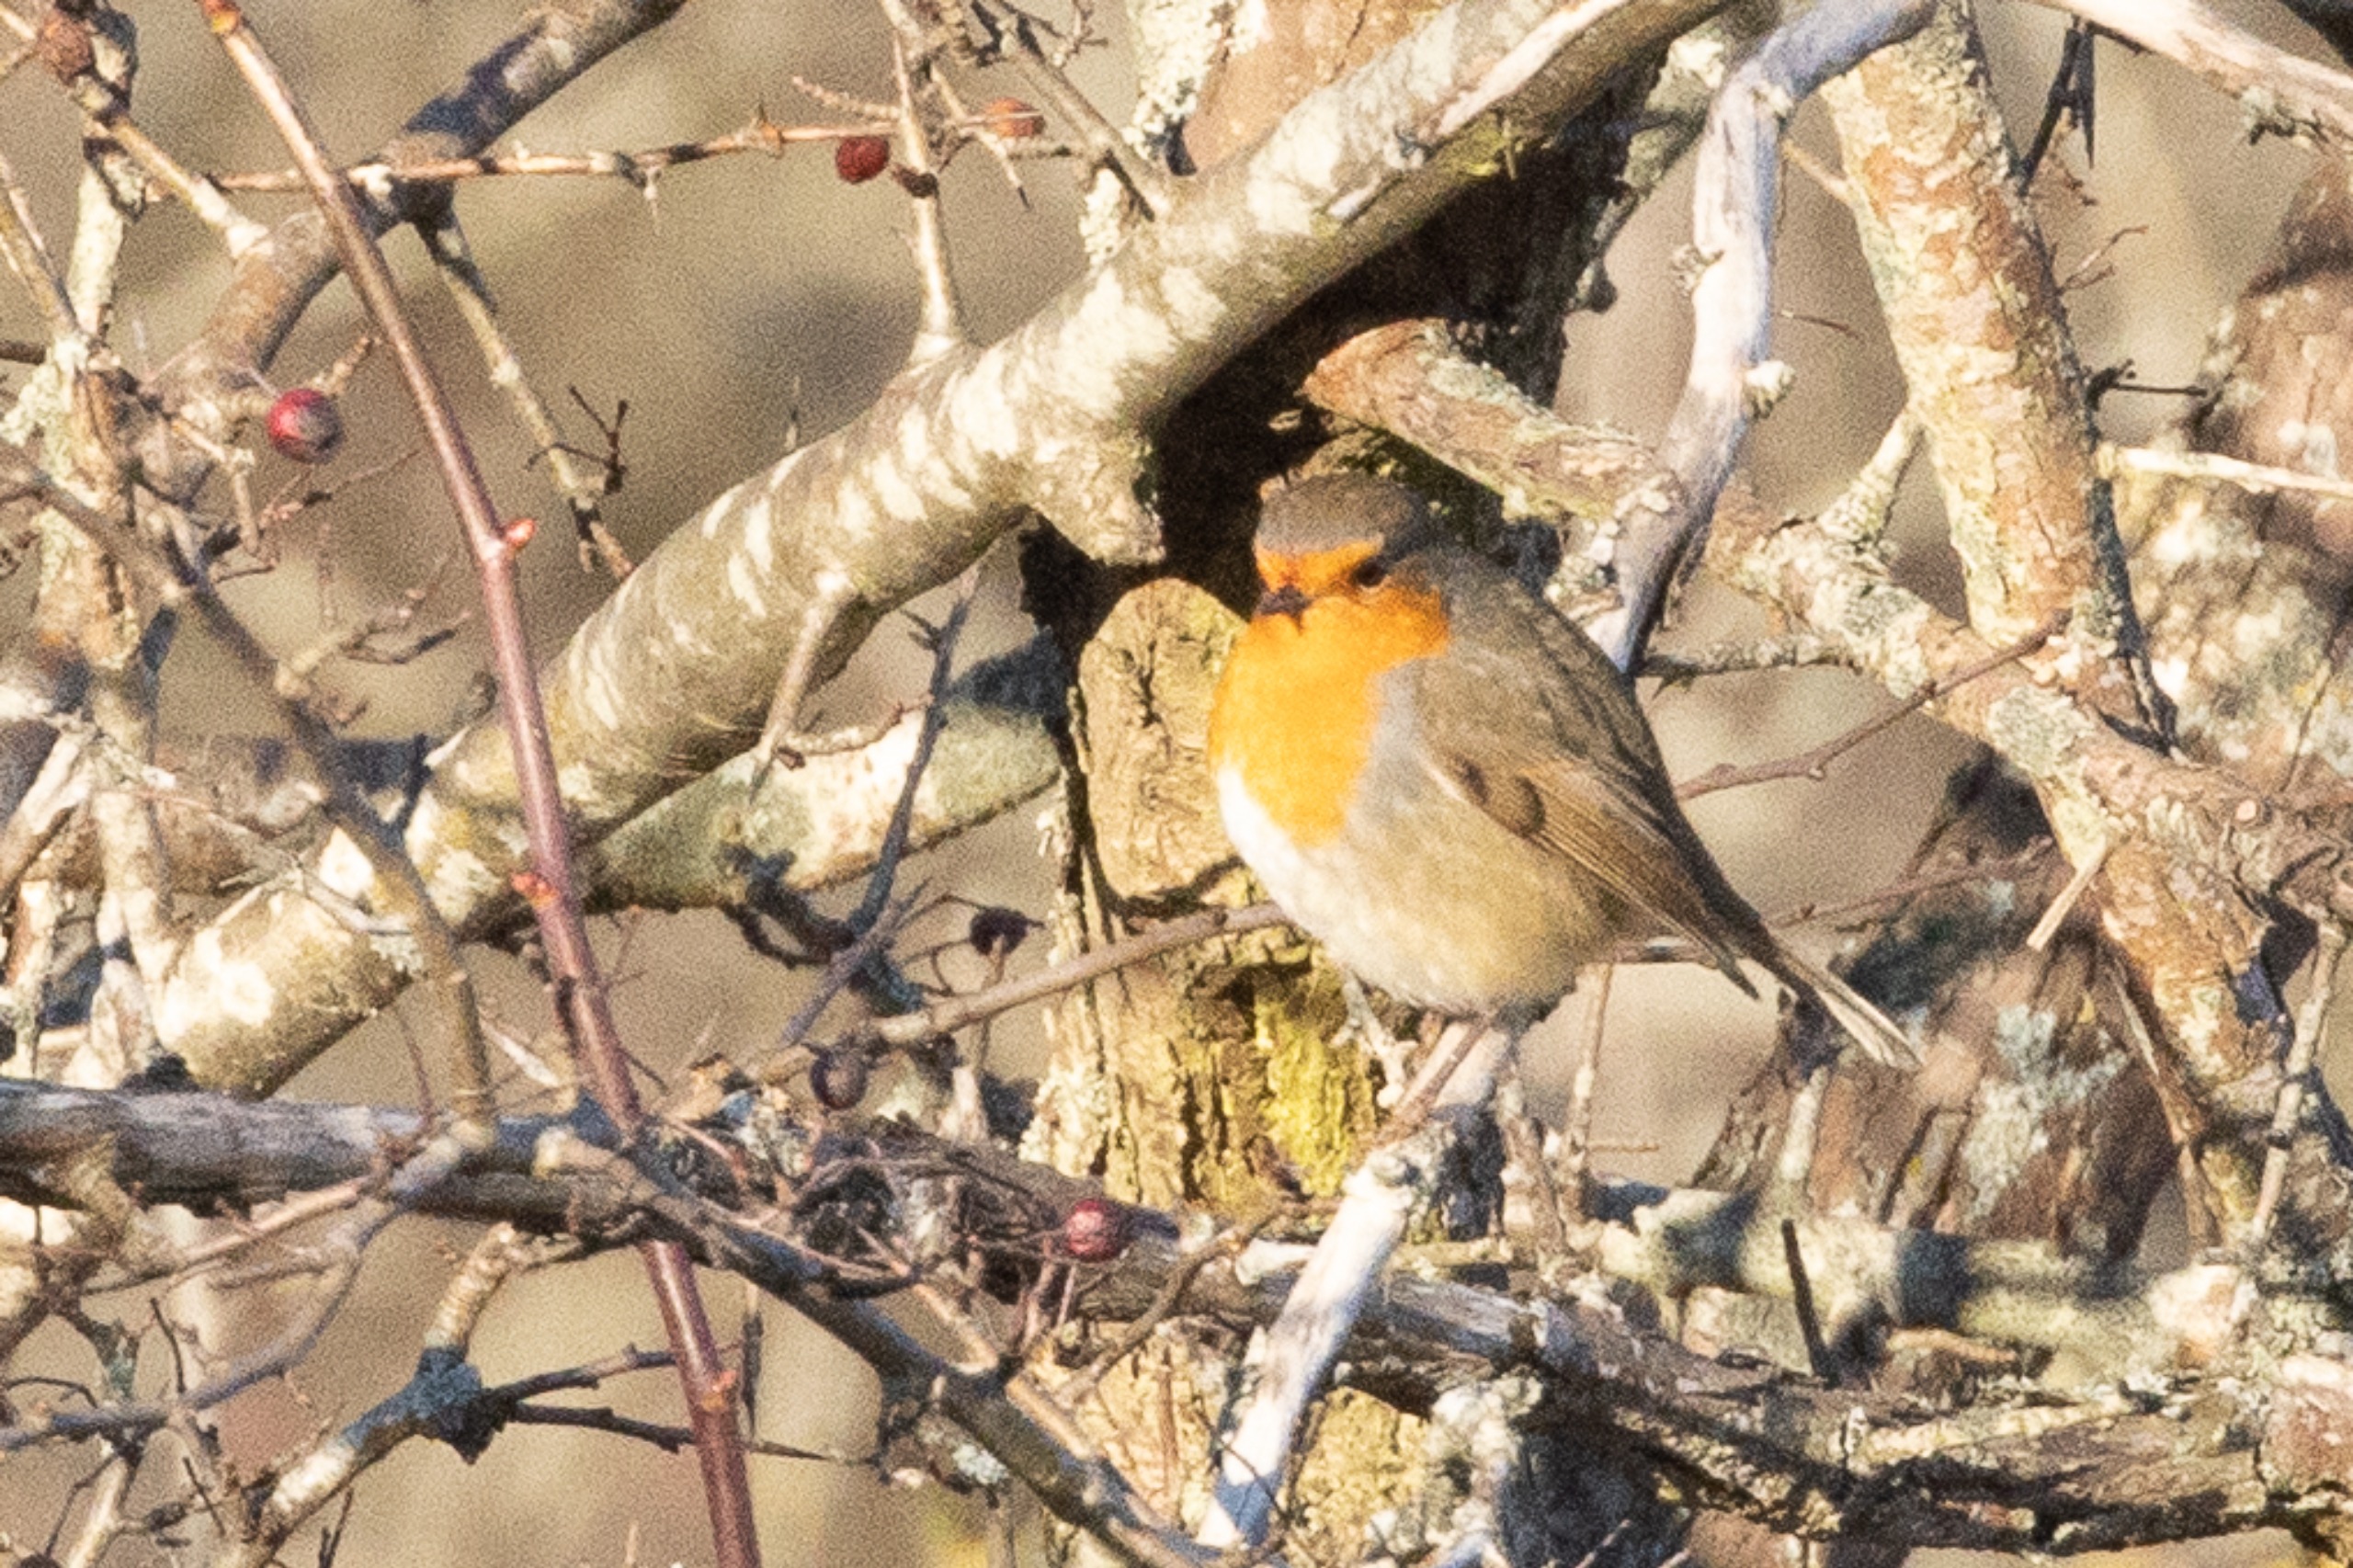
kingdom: Animalia
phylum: Chordata
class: Aves
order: Passeriformes
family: Muscicapidae
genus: Erithacus
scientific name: Erithacus rubecula
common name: Rødhals/rødkælk
